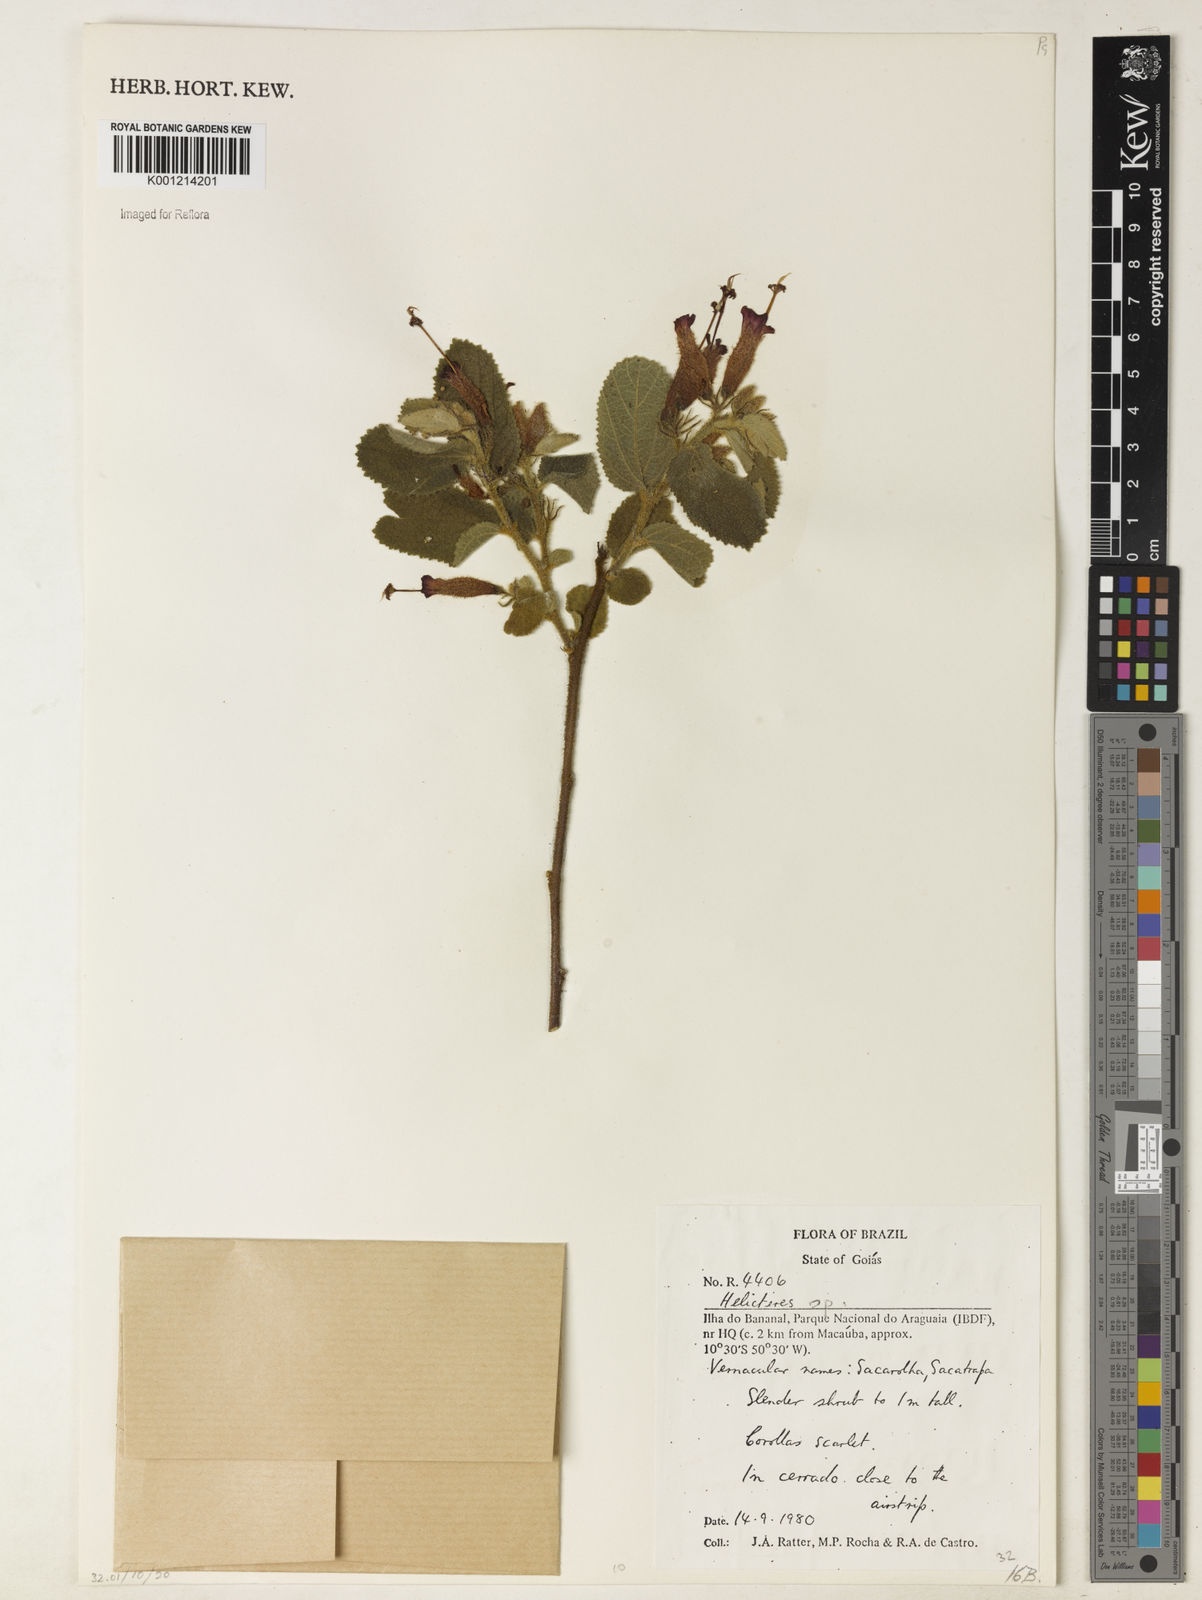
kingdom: Plantae
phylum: Tracheophyta
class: Magnoliopsida
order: Malvales
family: Malvaceae
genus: Helicteres
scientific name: Helicteres aspera
